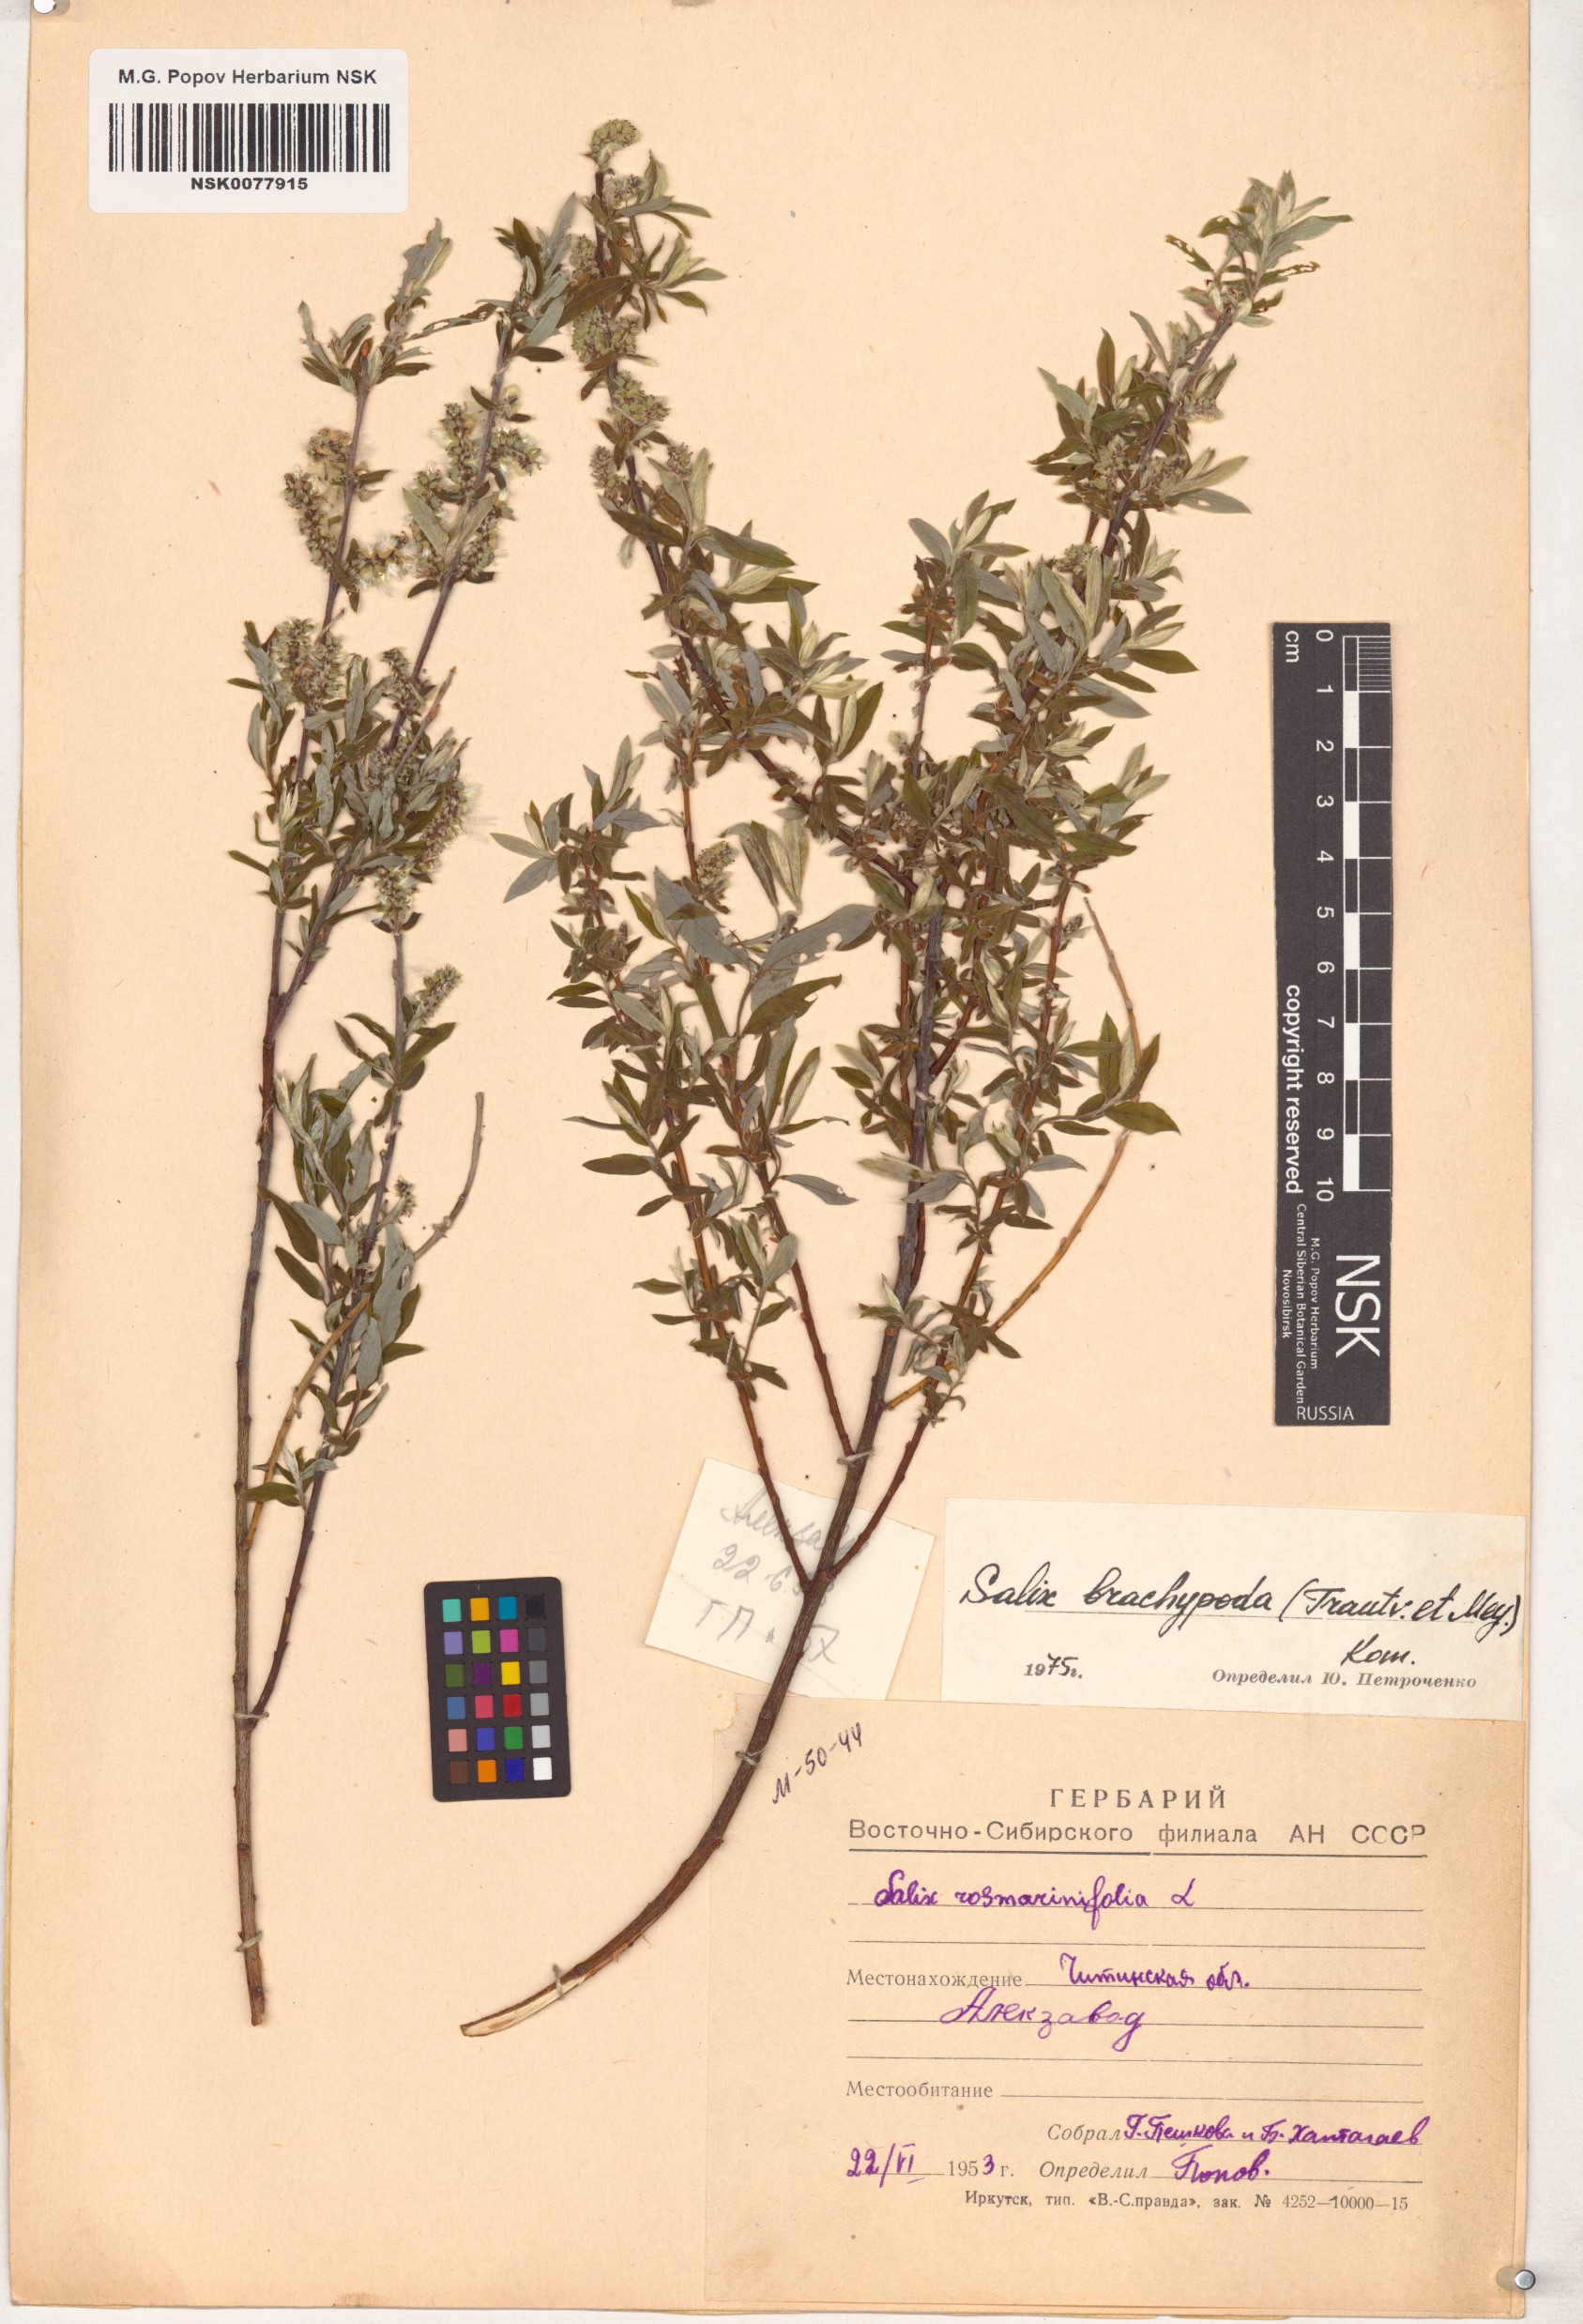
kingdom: Plantae
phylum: Tracheophyta
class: Magnoliopsida
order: Malpighiales
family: Salicaceae
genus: Salix
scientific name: Salix brachypoda
